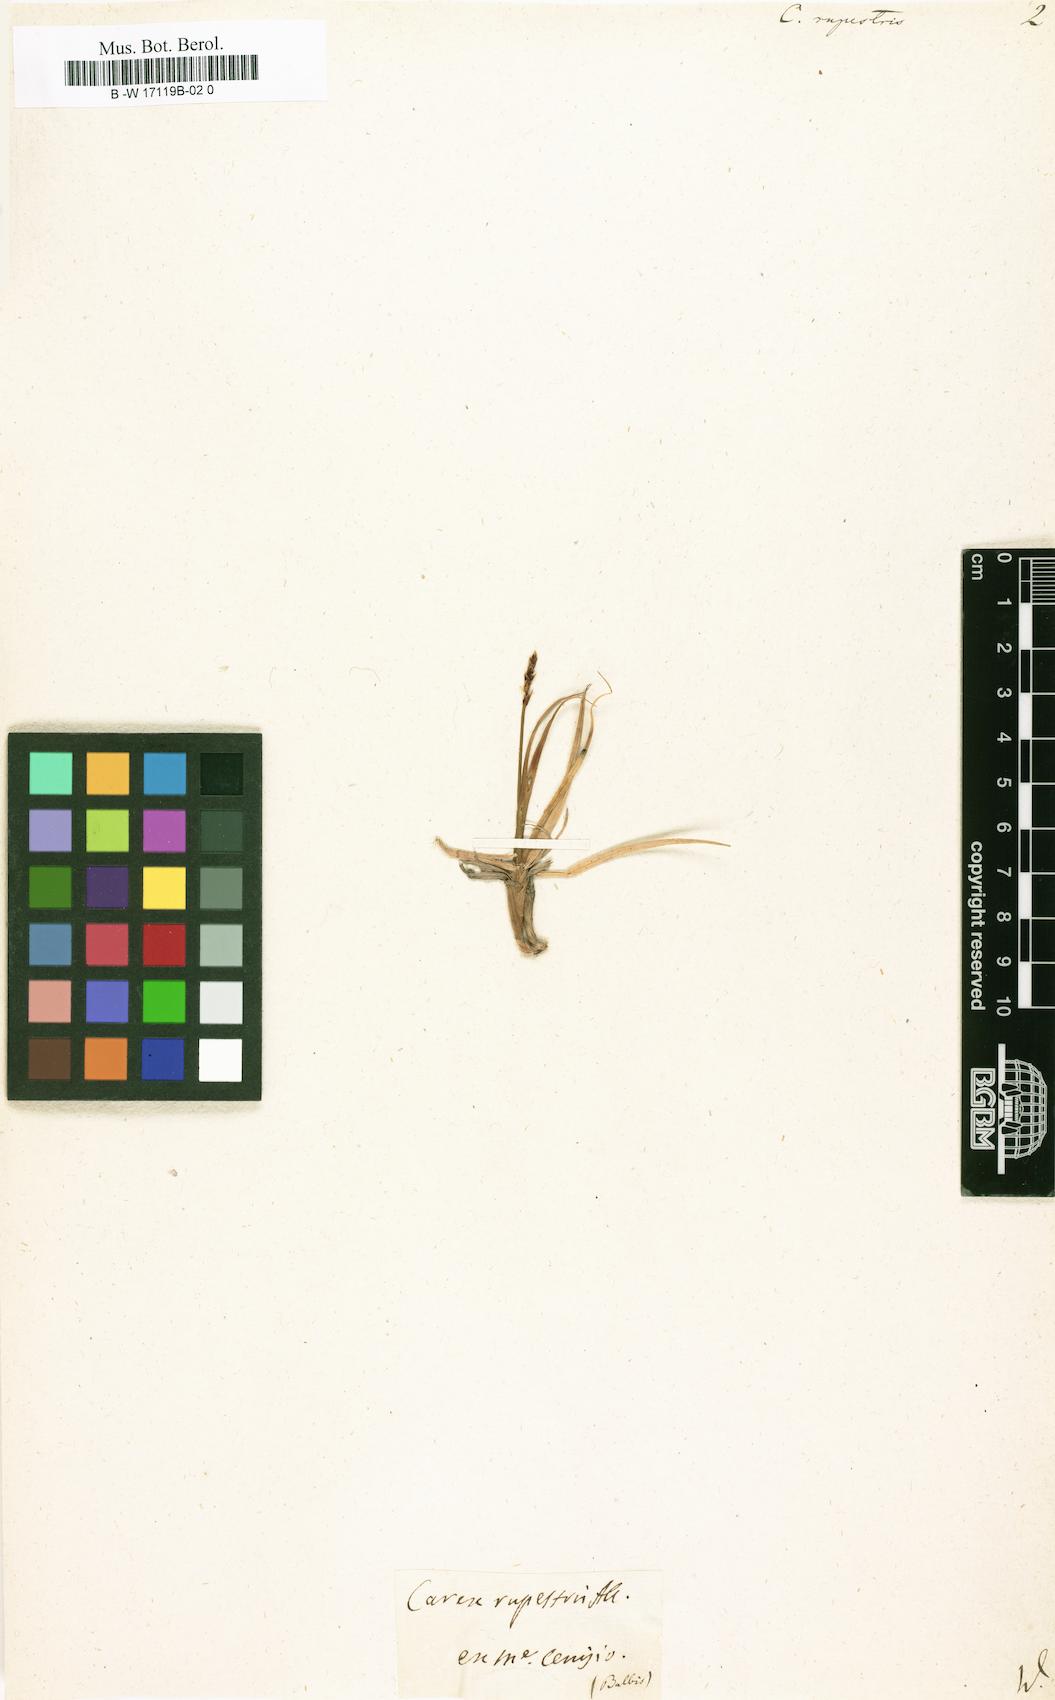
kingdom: Plantae
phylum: Tracheophyta
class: Liliopsida
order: Poales
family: Cyperaceae
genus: Carex
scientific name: Carex rupestris
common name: Rock sedge
